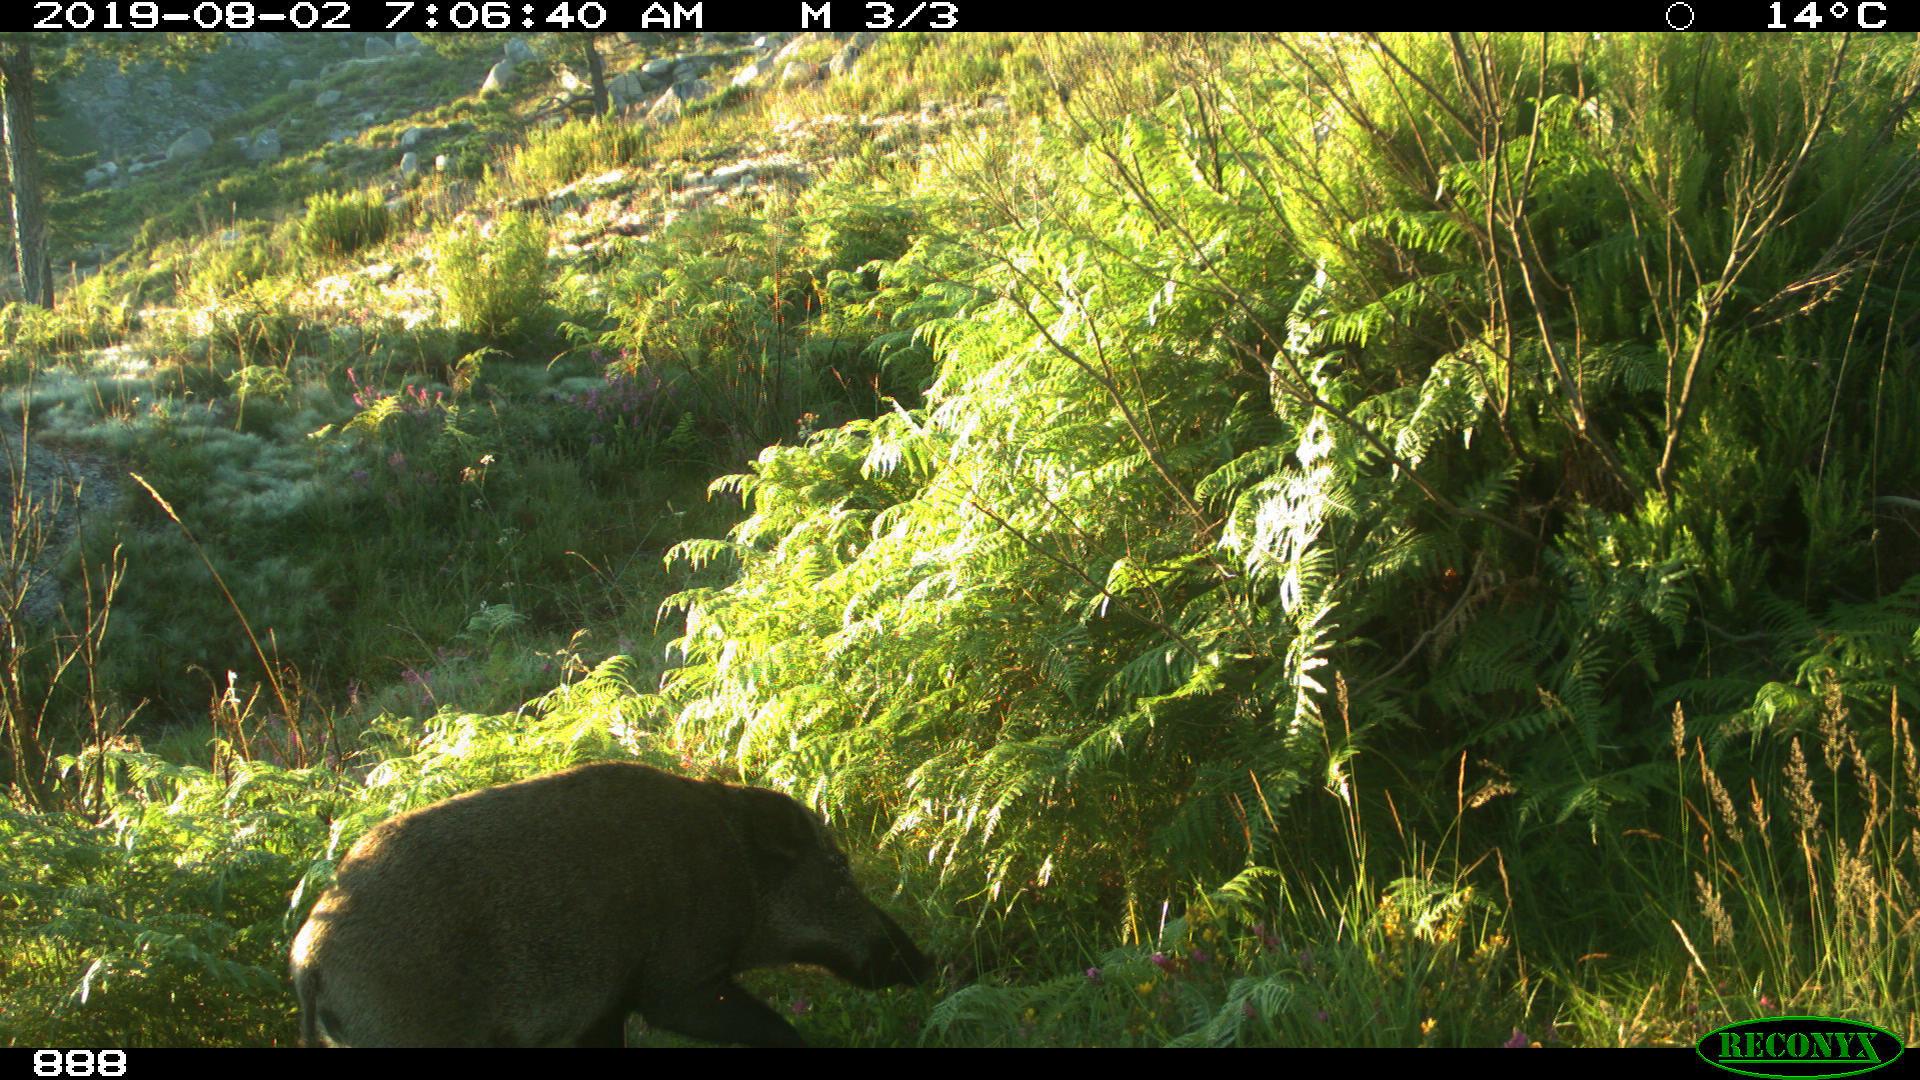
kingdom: Animalia
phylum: Chordata
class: Mammalia
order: Artiodactyla
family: Suidae
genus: Sus
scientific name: Sus scrofa
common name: Wild boar
